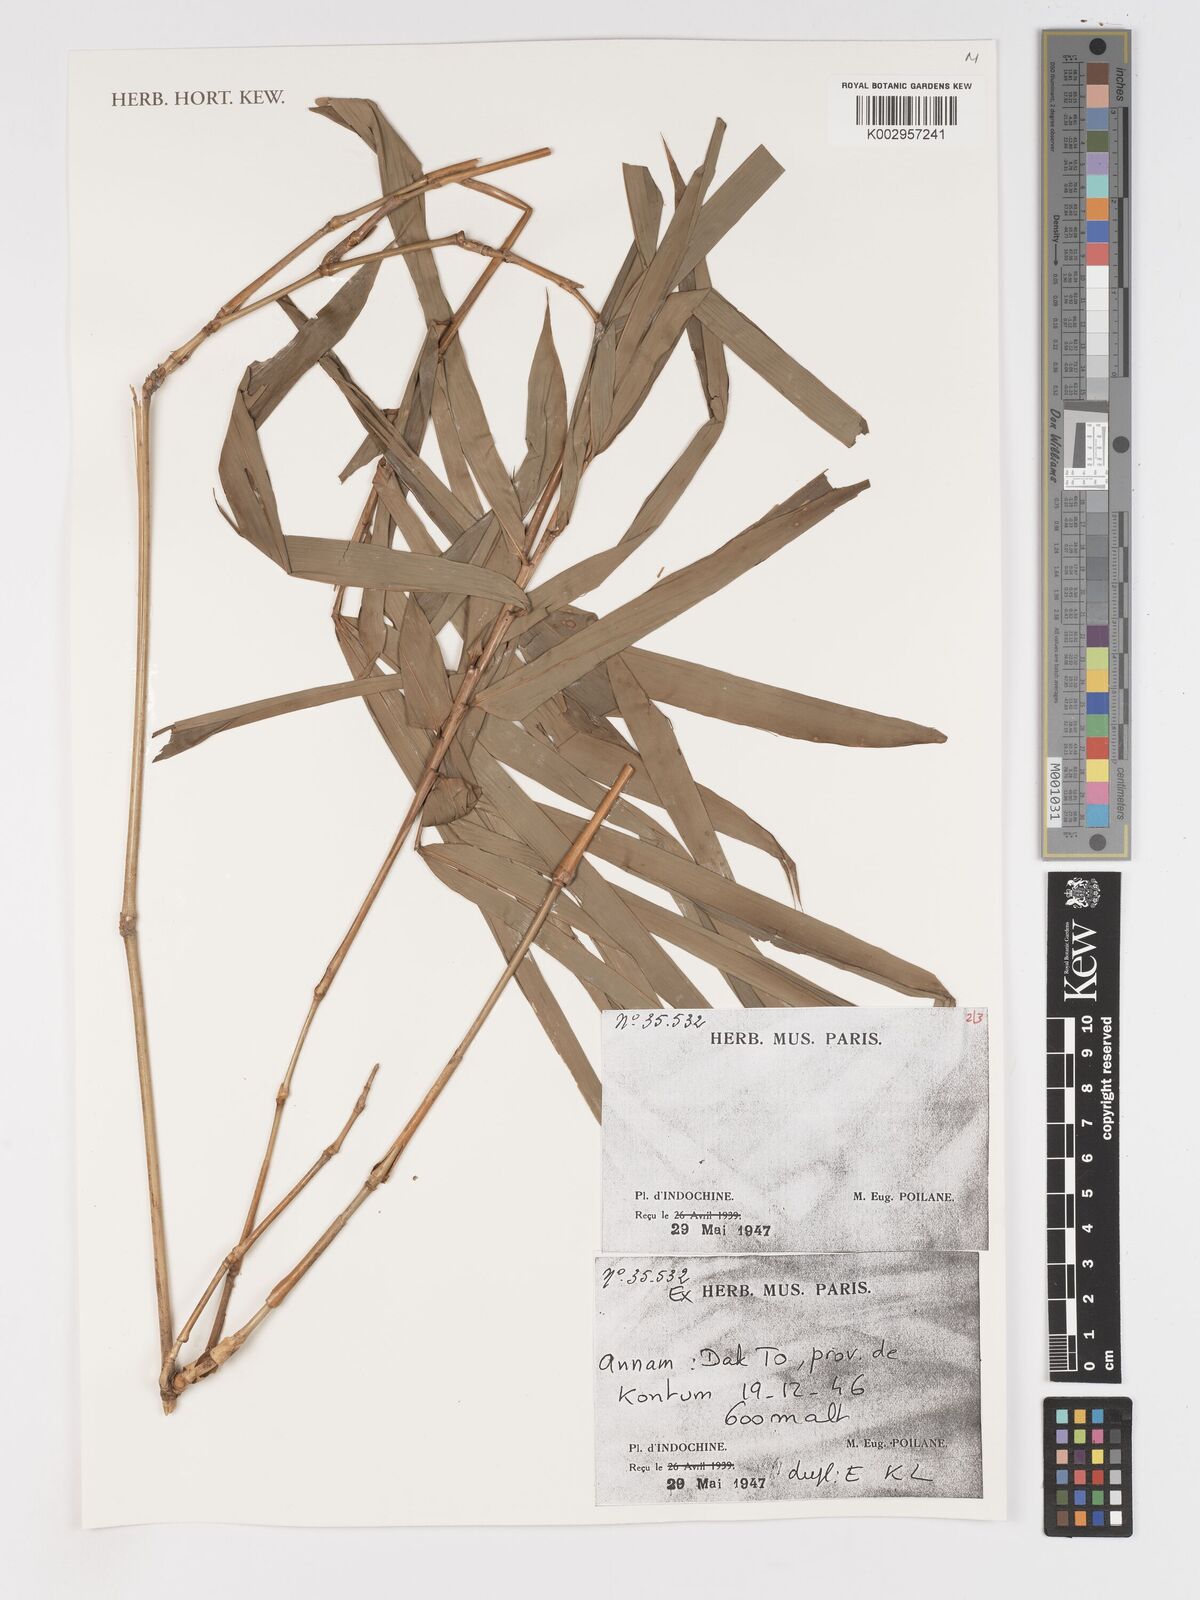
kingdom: Plantae
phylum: Tracheophyta
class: Liliopsida
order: Poales
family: Poaceae
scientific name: Poaceae
